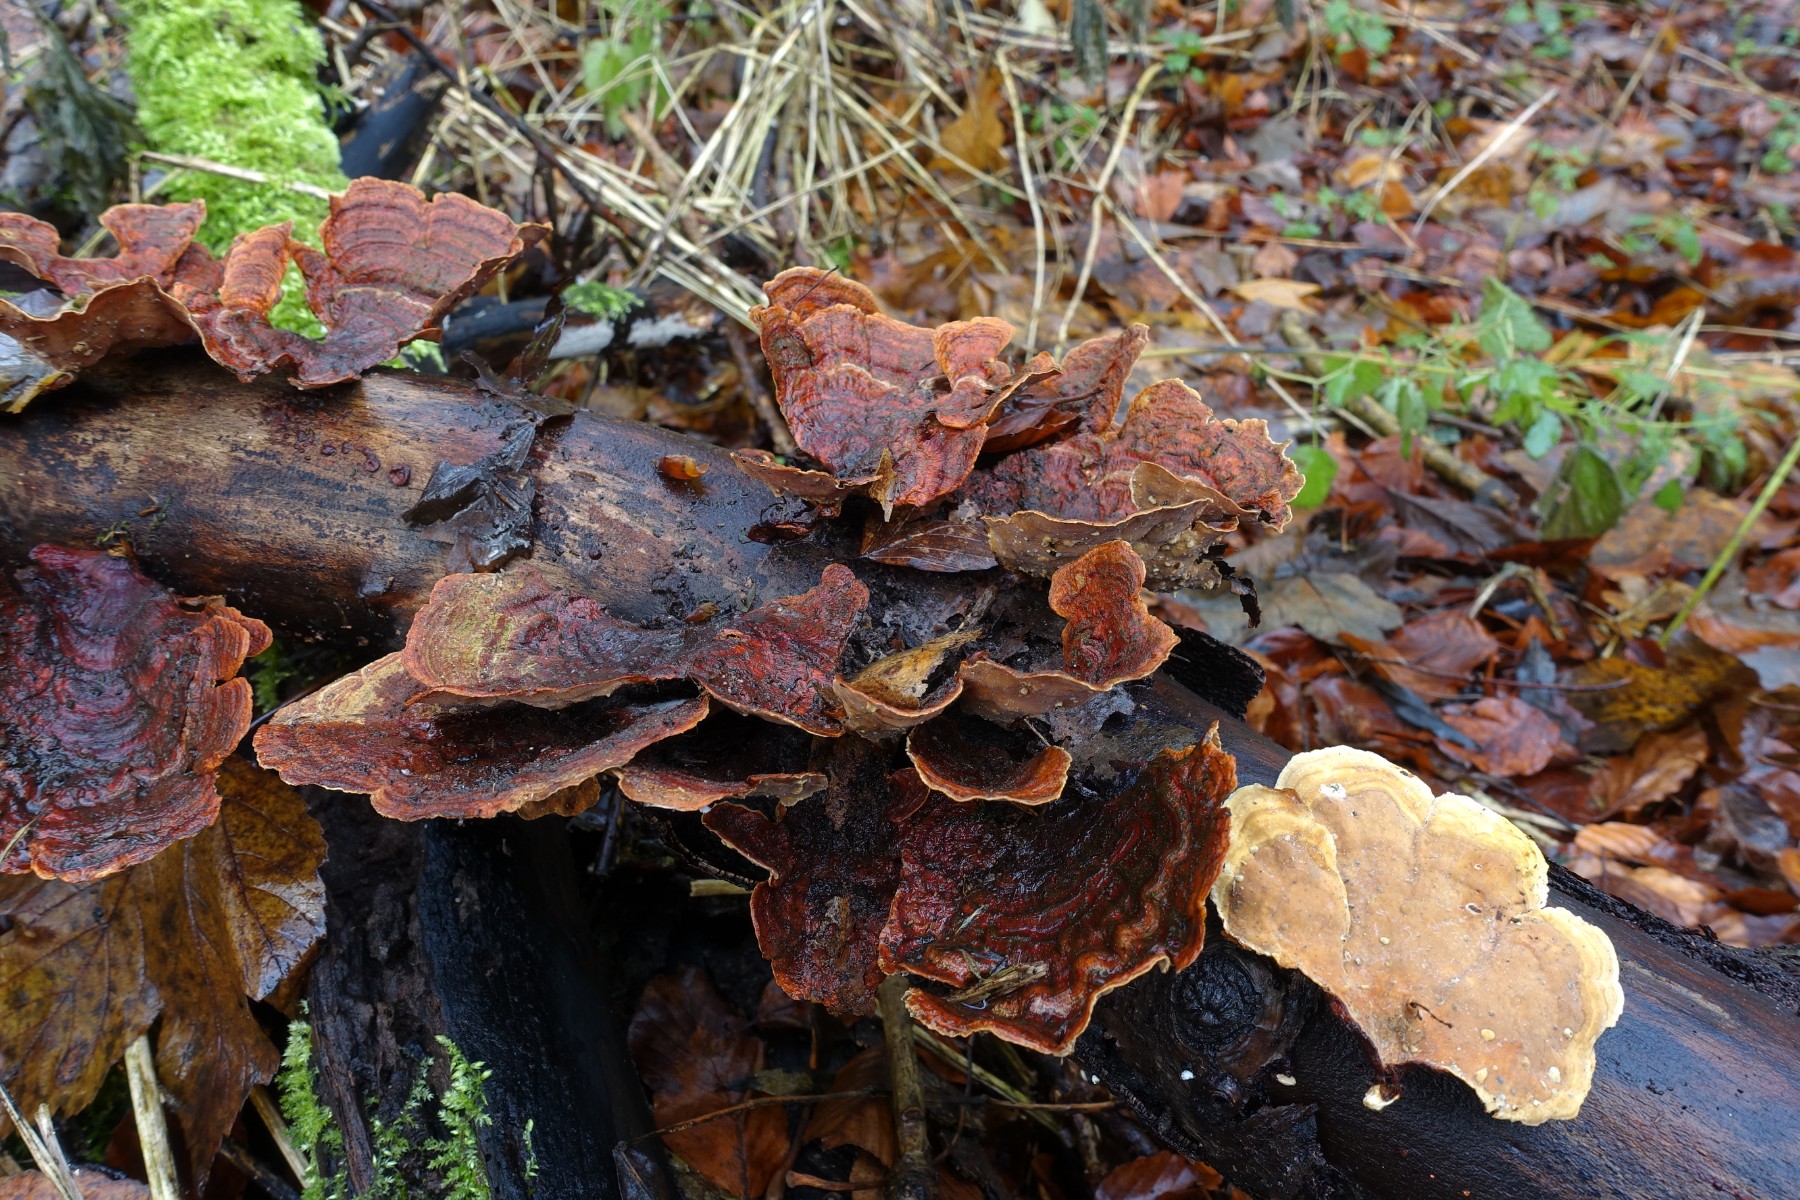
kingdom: Fungi
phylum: Basidiomycota
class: Agaricomycetes
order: Russulales
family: Stereaceae
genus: Stereum
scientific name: Stereum subtomentosum
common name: smuk lædersvamp
